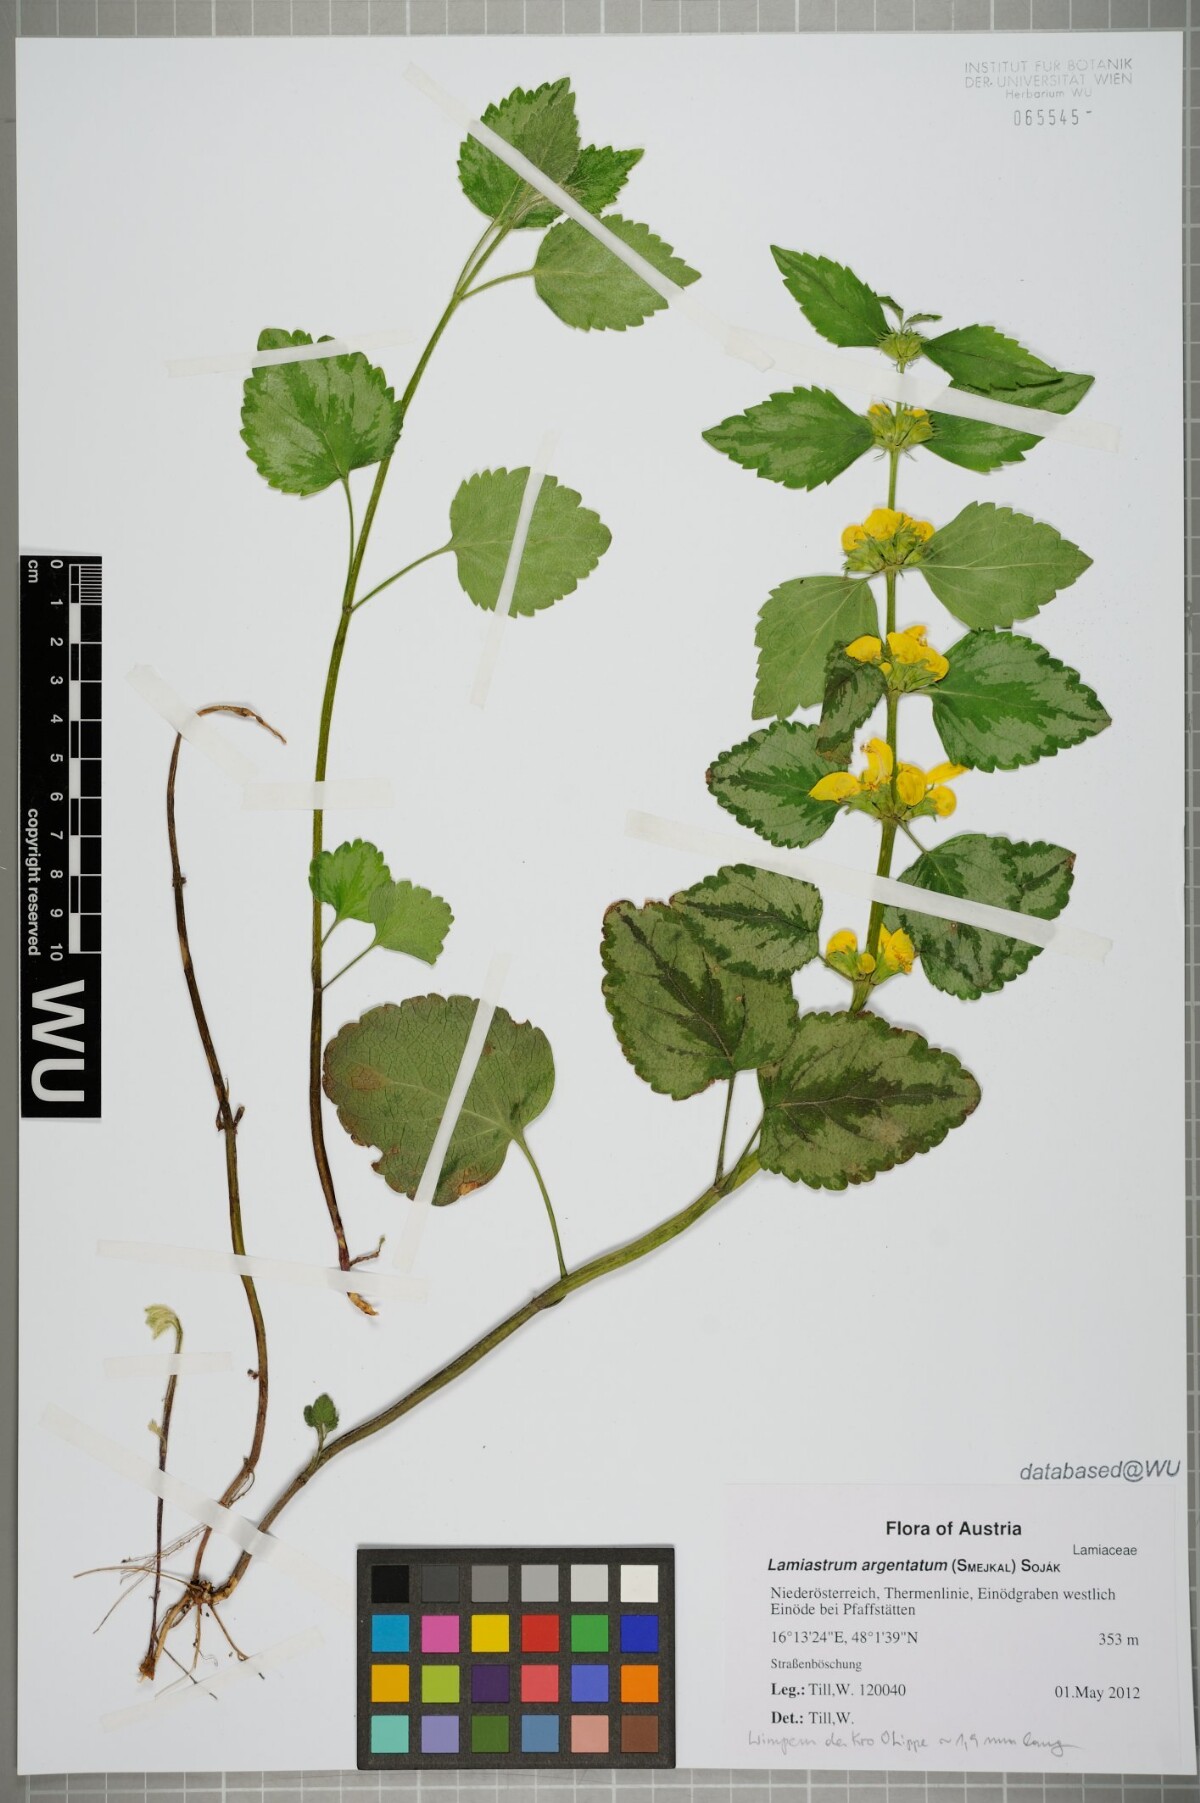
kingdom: Plantae
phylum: Tracheophyta
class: Magnoliopsida
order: Lamiales
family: Lamiaceae
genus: Lamium
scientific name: Lamium galeobdolon
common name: Yellow archangel
